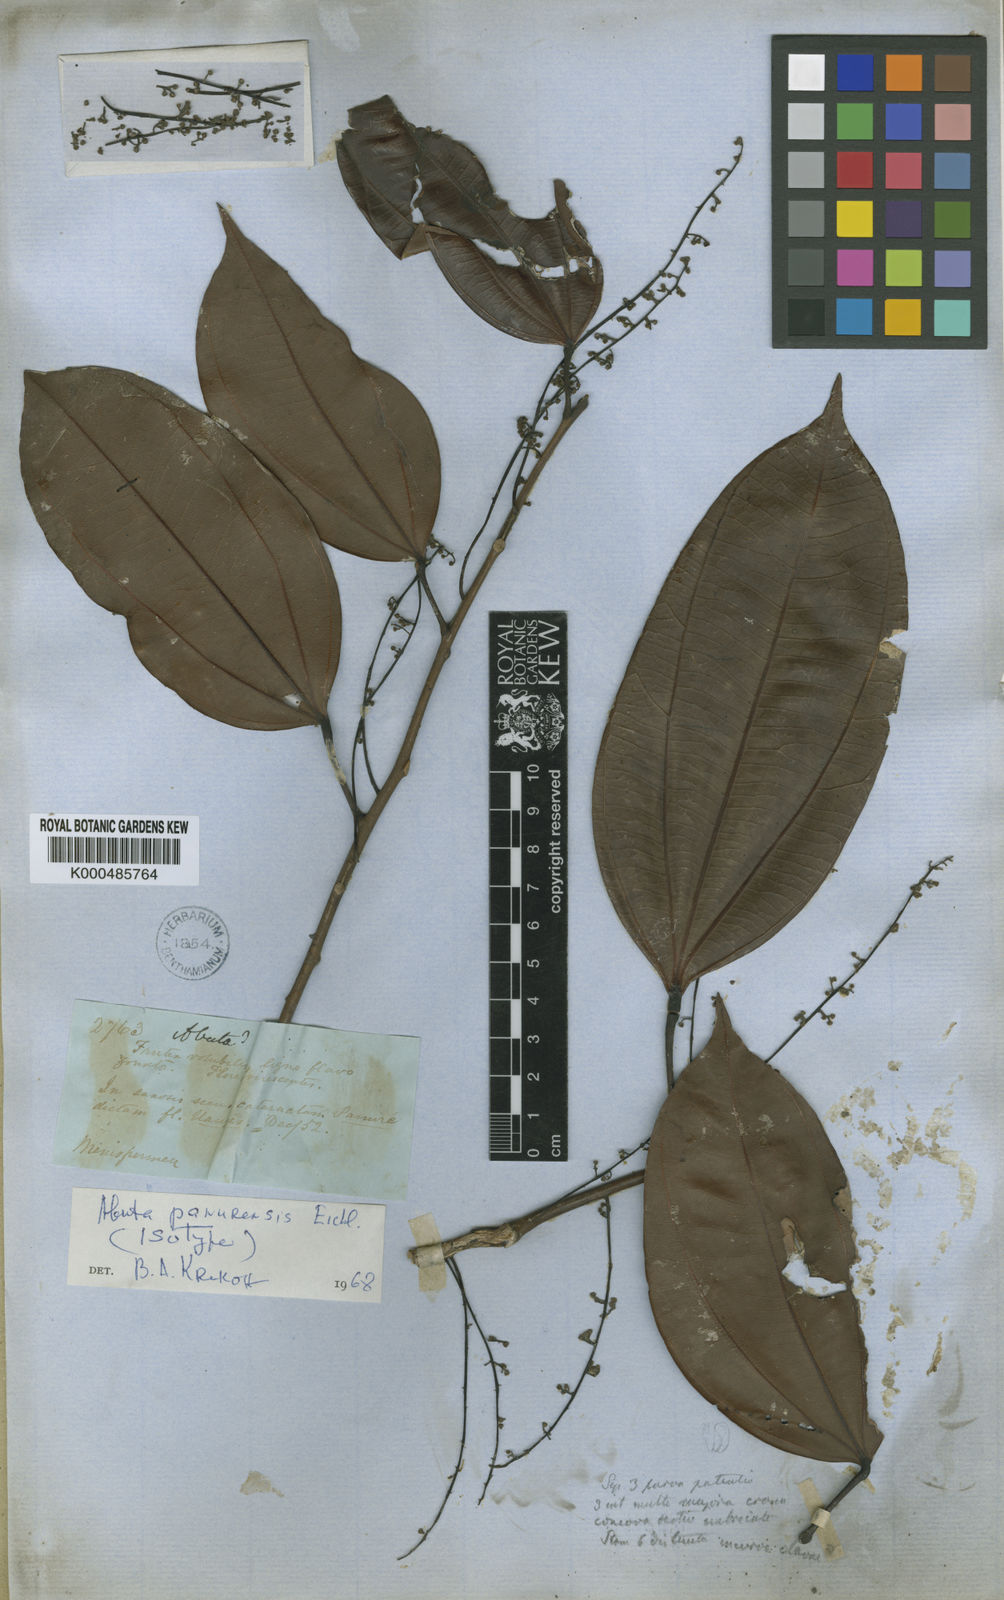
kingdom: Plantae
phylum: Tracheophyta
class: Magnoliopsida
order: Ranunculales
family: Menispermaceae
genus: Abuta
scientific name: Abuta panurensis
